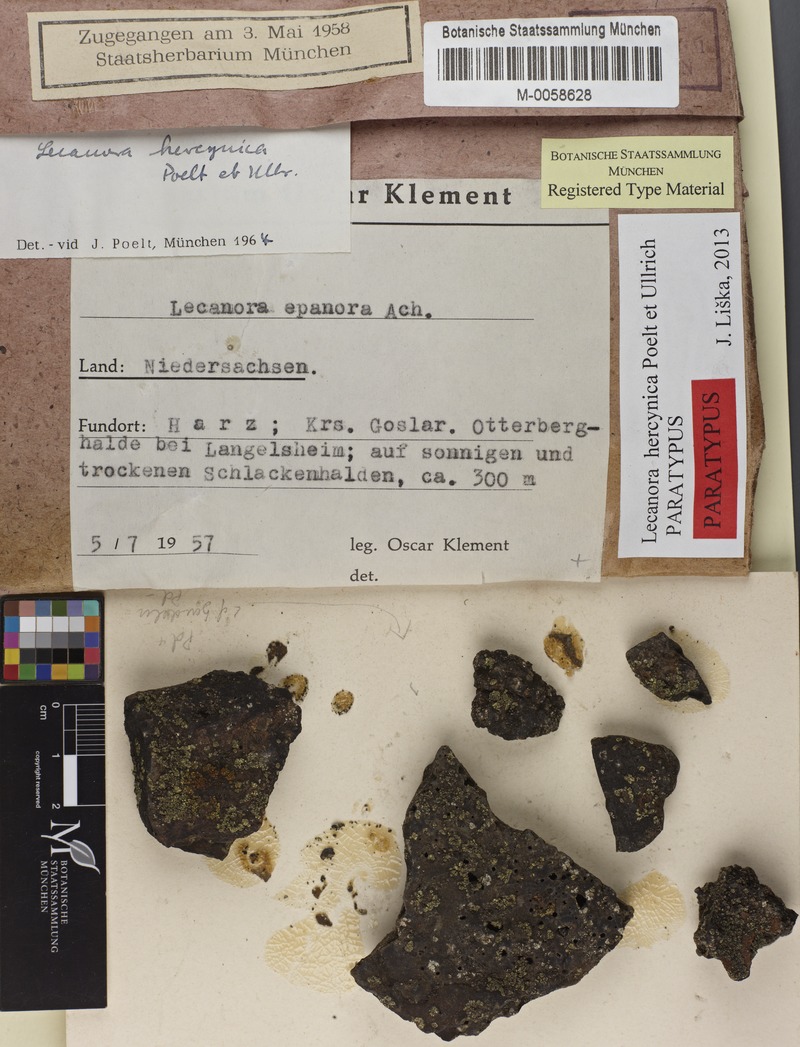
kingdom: Fungi
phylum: Ascomycota
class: Lecanoromycetes
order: Lecanorales
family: Lecanoraceae
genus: Lecanora
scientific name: Lecanora subaurea
